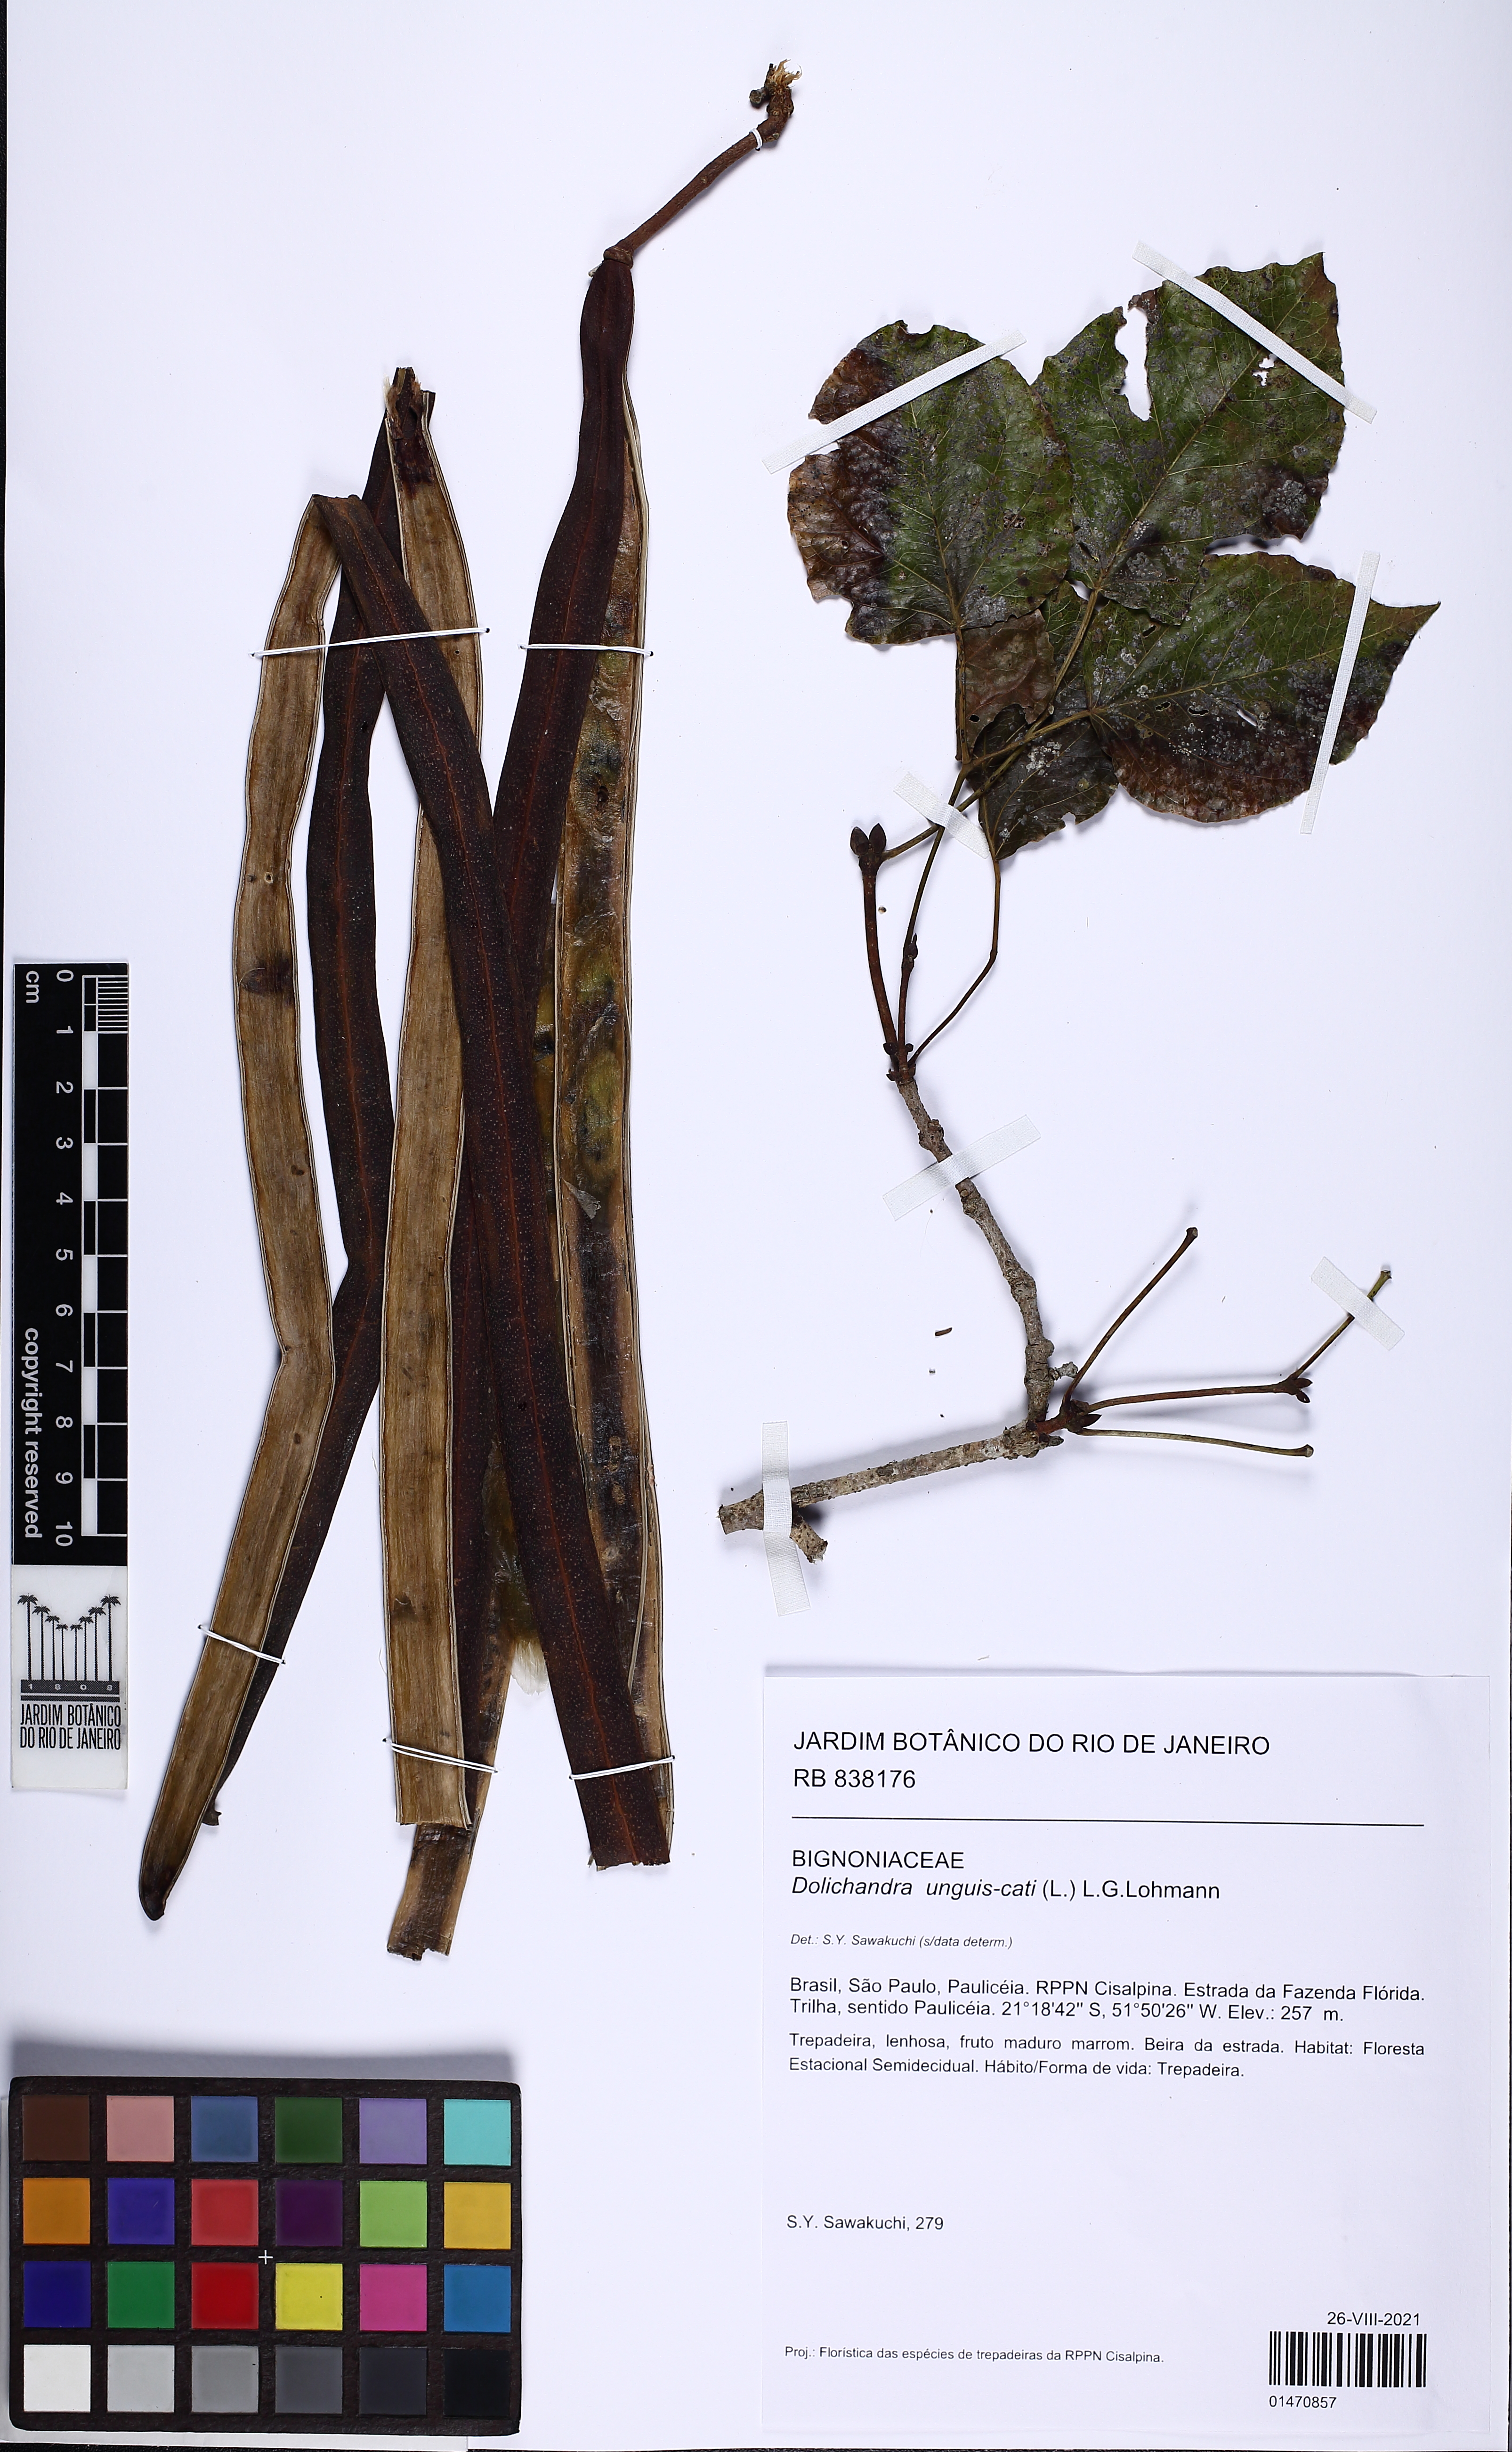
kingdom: Plantae
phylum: Tracheophyta
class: Magnoliopsida
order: Lamiales
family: Bignoniaceae
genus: Dolichandra
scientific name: Dolichandra unguis-cati
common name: Catclaw vine
